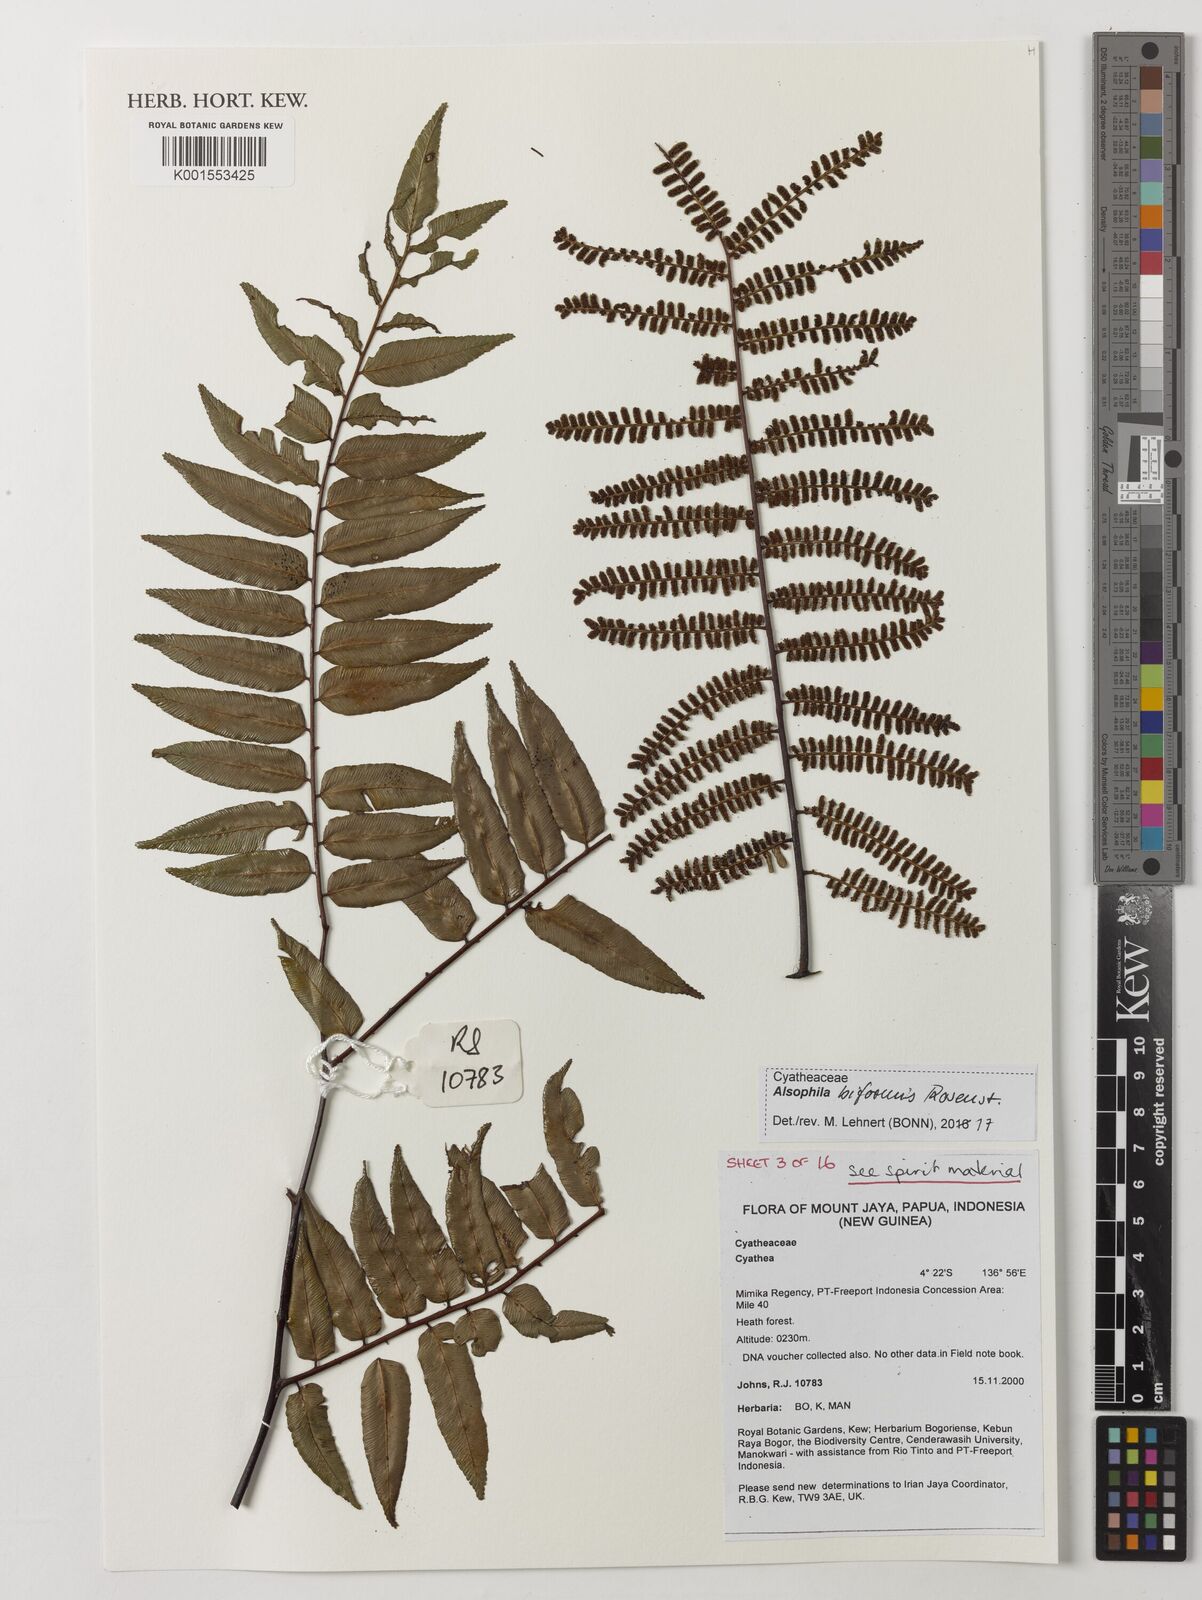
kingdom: Plantae
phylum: Tracheophyta
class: Polypodiopsida
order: Cyatheales
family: Cyatheaceae
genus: Gymnosphaera
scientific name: Gymnosphaera biformis
